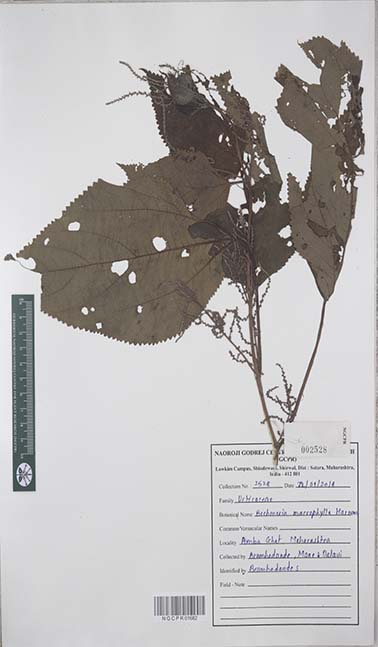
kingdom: Plantae
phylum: Tracheophyta
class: Magnoliopsida
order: Rosales
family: Urticaceae
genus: Boehmeria
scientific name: Boehmeria virgata
